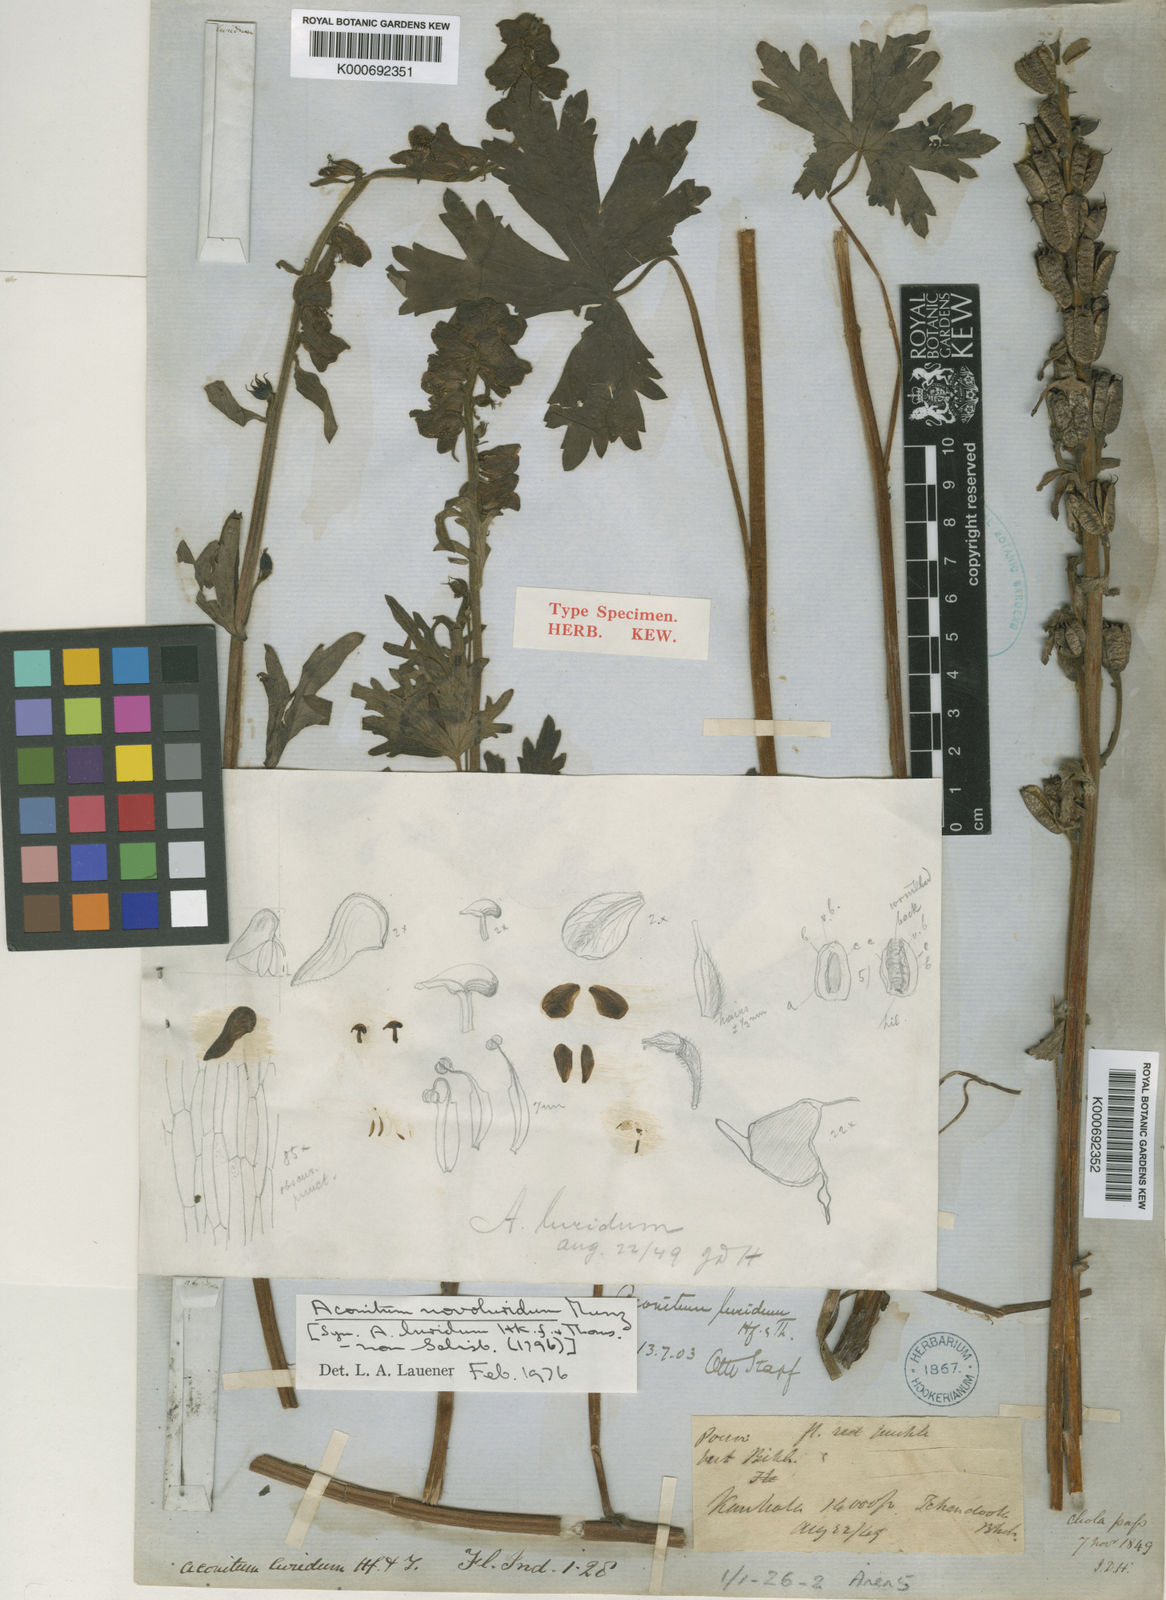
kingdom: Plantae
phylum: Tracheophyta
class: Magnoliopsida
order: Ranunculales
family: Ranunculaceae
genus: Aconitum
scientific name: Aconitum novoluridum
